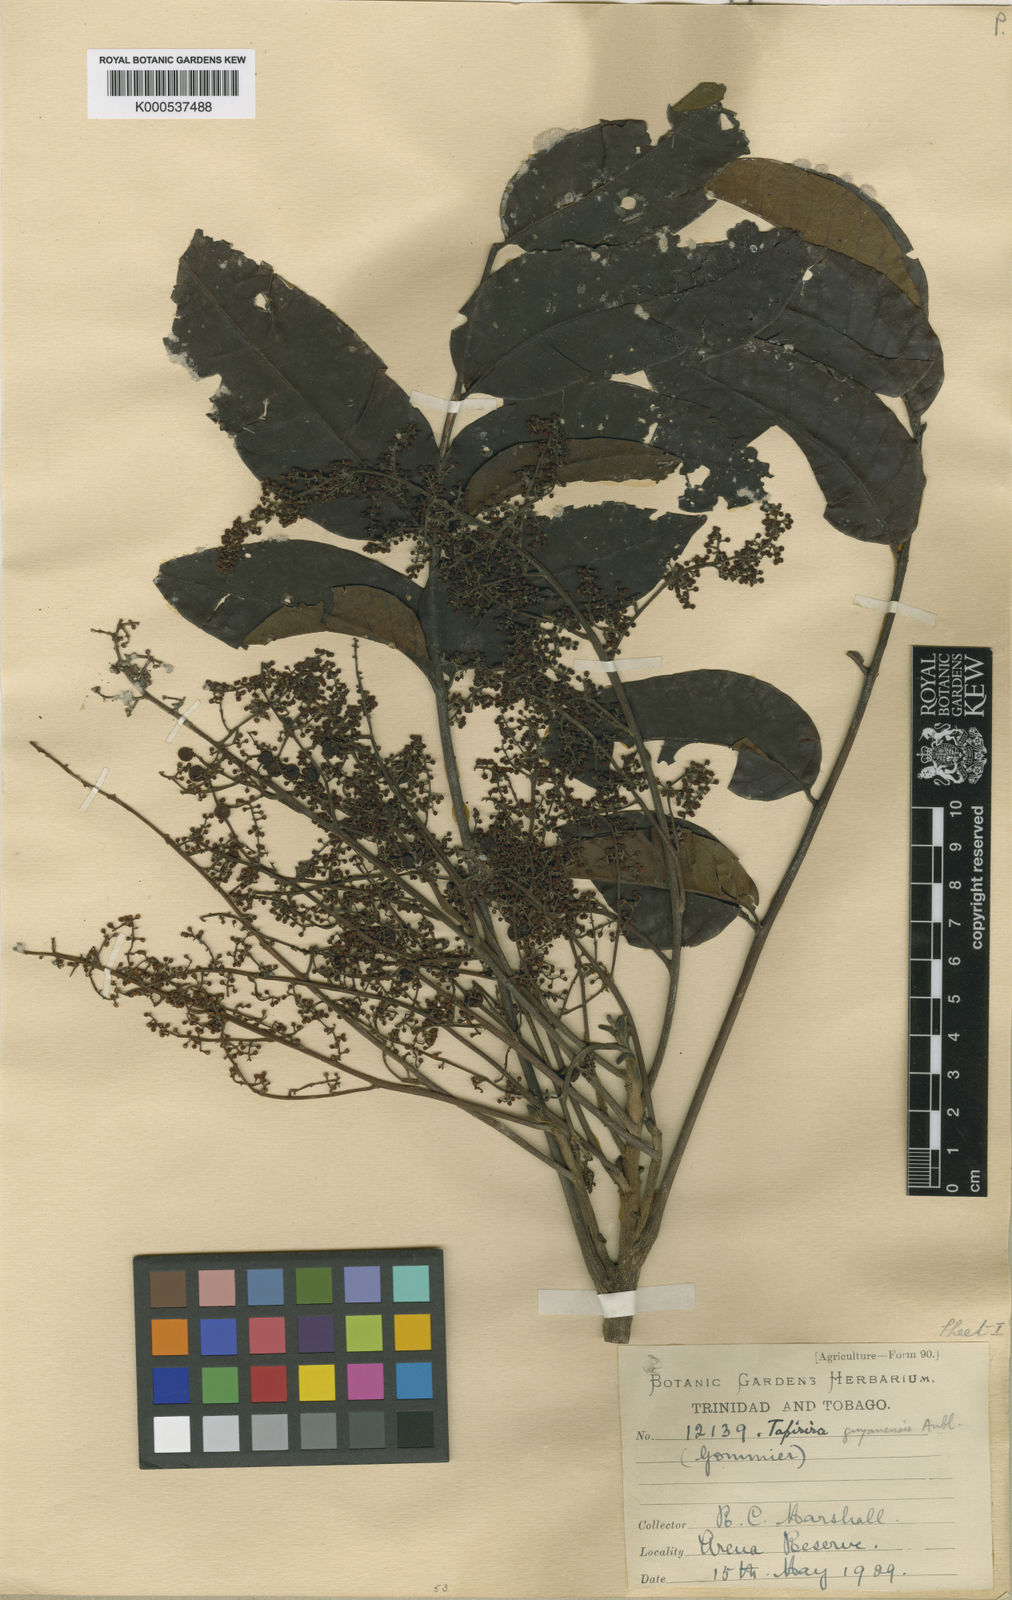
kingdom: Plantae
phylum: Tracheophyta
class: Magnoliopsida
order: Sapindales
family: Anacardiaceae
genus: Tapirira
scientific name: Tapirira guianensis
